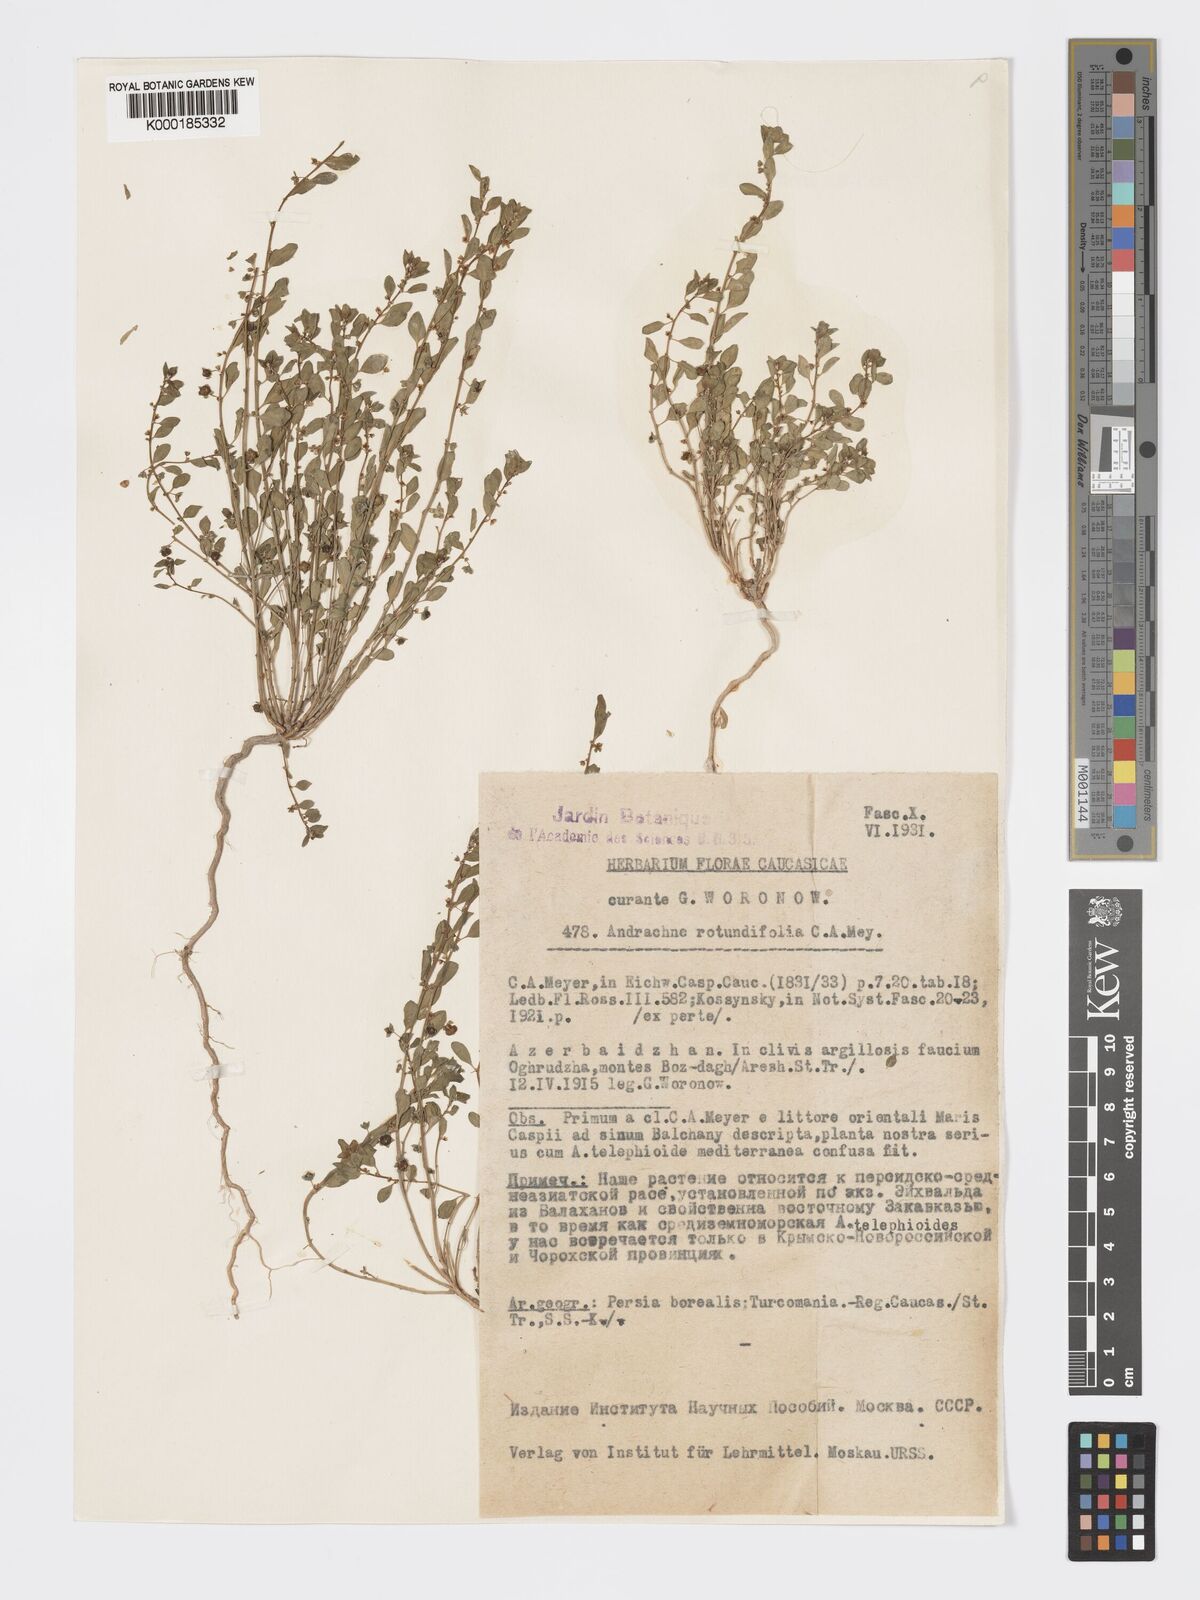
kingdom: Plantae
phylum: Tracheophyta
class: Magnoliopsida
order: Malpighiales
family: Phyllanthaceae
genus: Andrachne
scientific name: Andrachne telephioides
